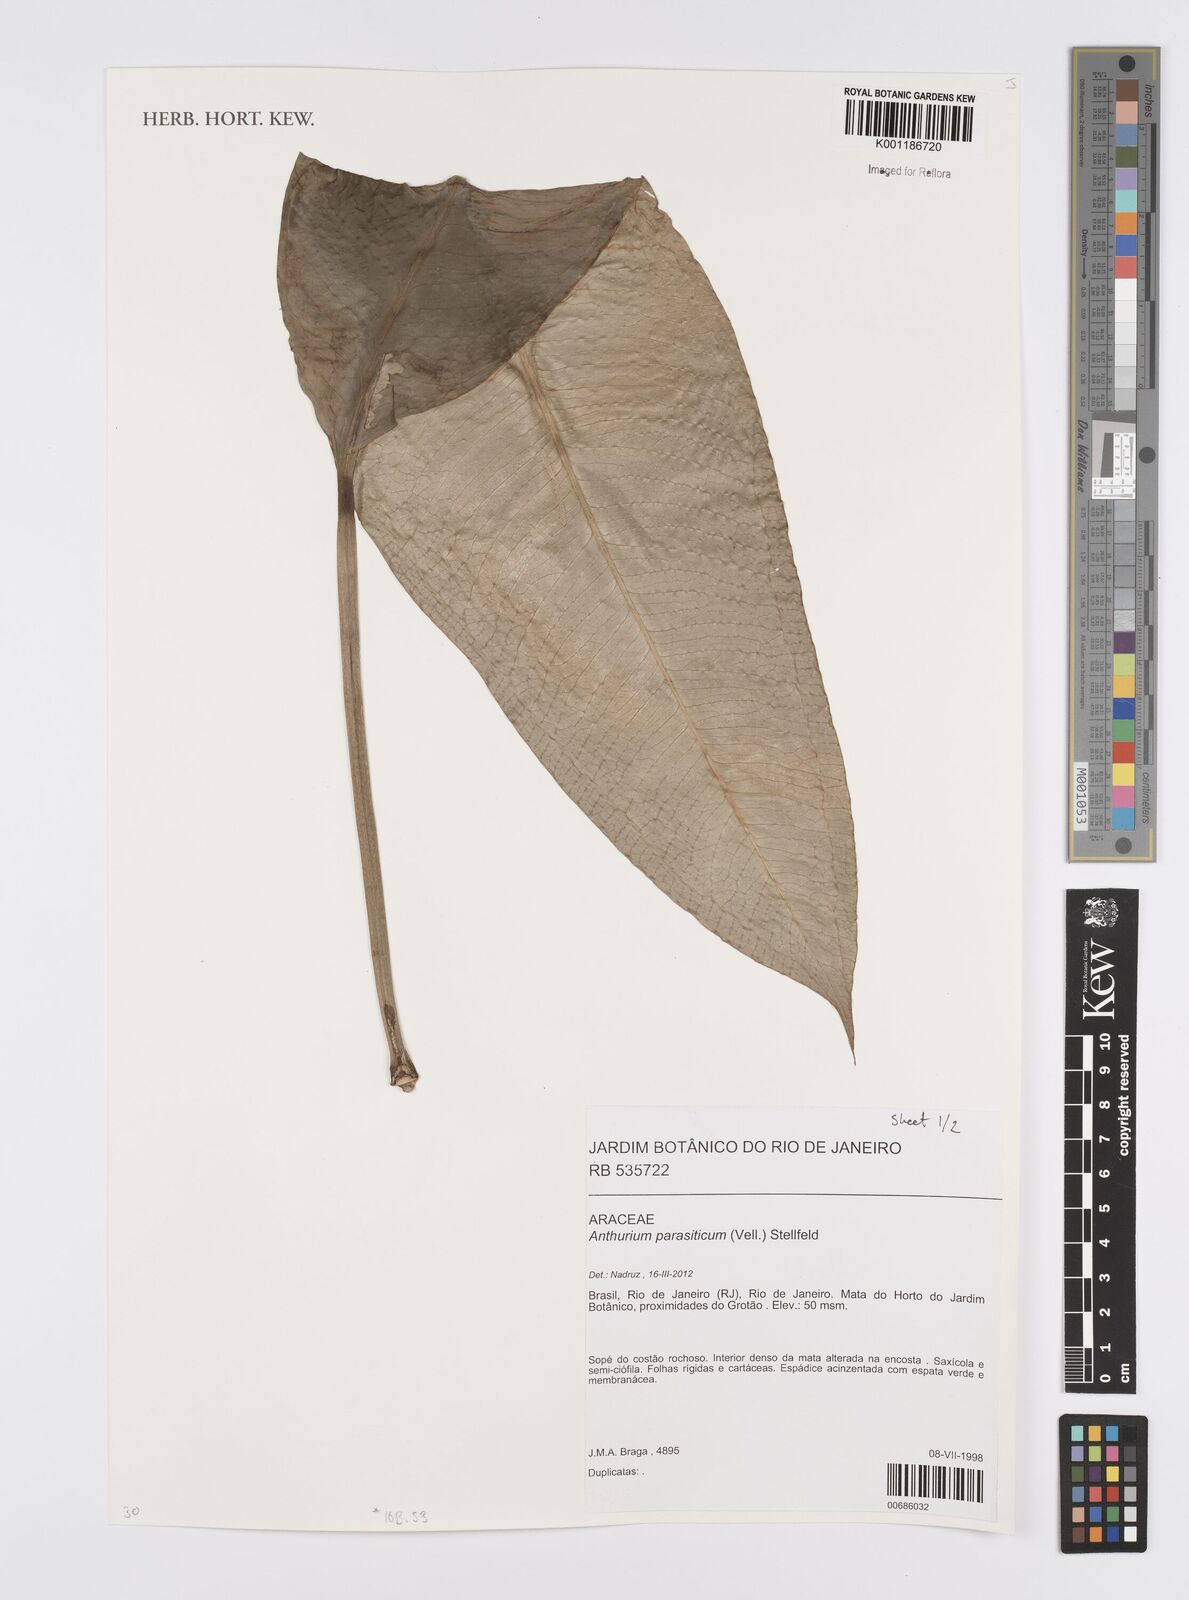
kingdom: Plantae
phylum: Tracheophyta
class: Liliopsida
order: Alismatales
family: Araceae
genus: Anthurium
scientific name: Anthurium parasiticum
